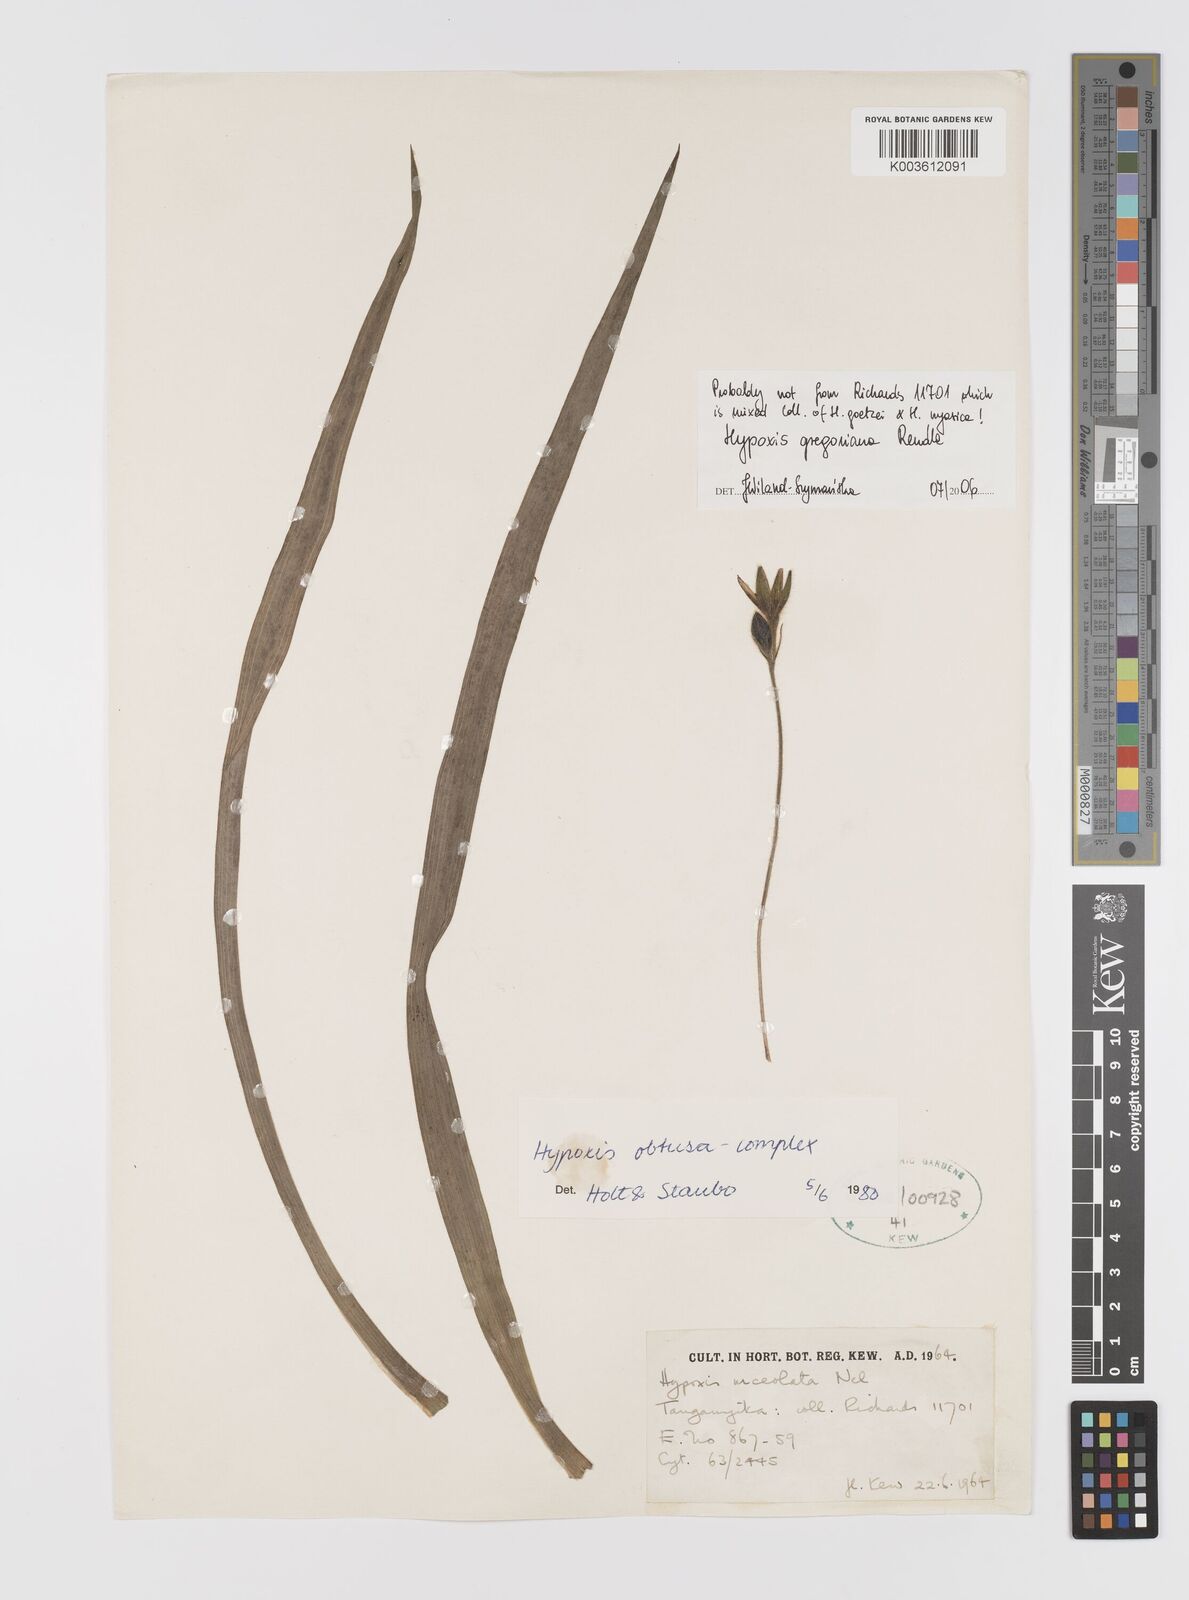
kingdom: Plantae
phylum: Tracheophyta
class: Liliopsida
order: Asparagales
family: Hypoxidaceae
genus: Hypoxis
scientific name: Hypoxis gregoriana
